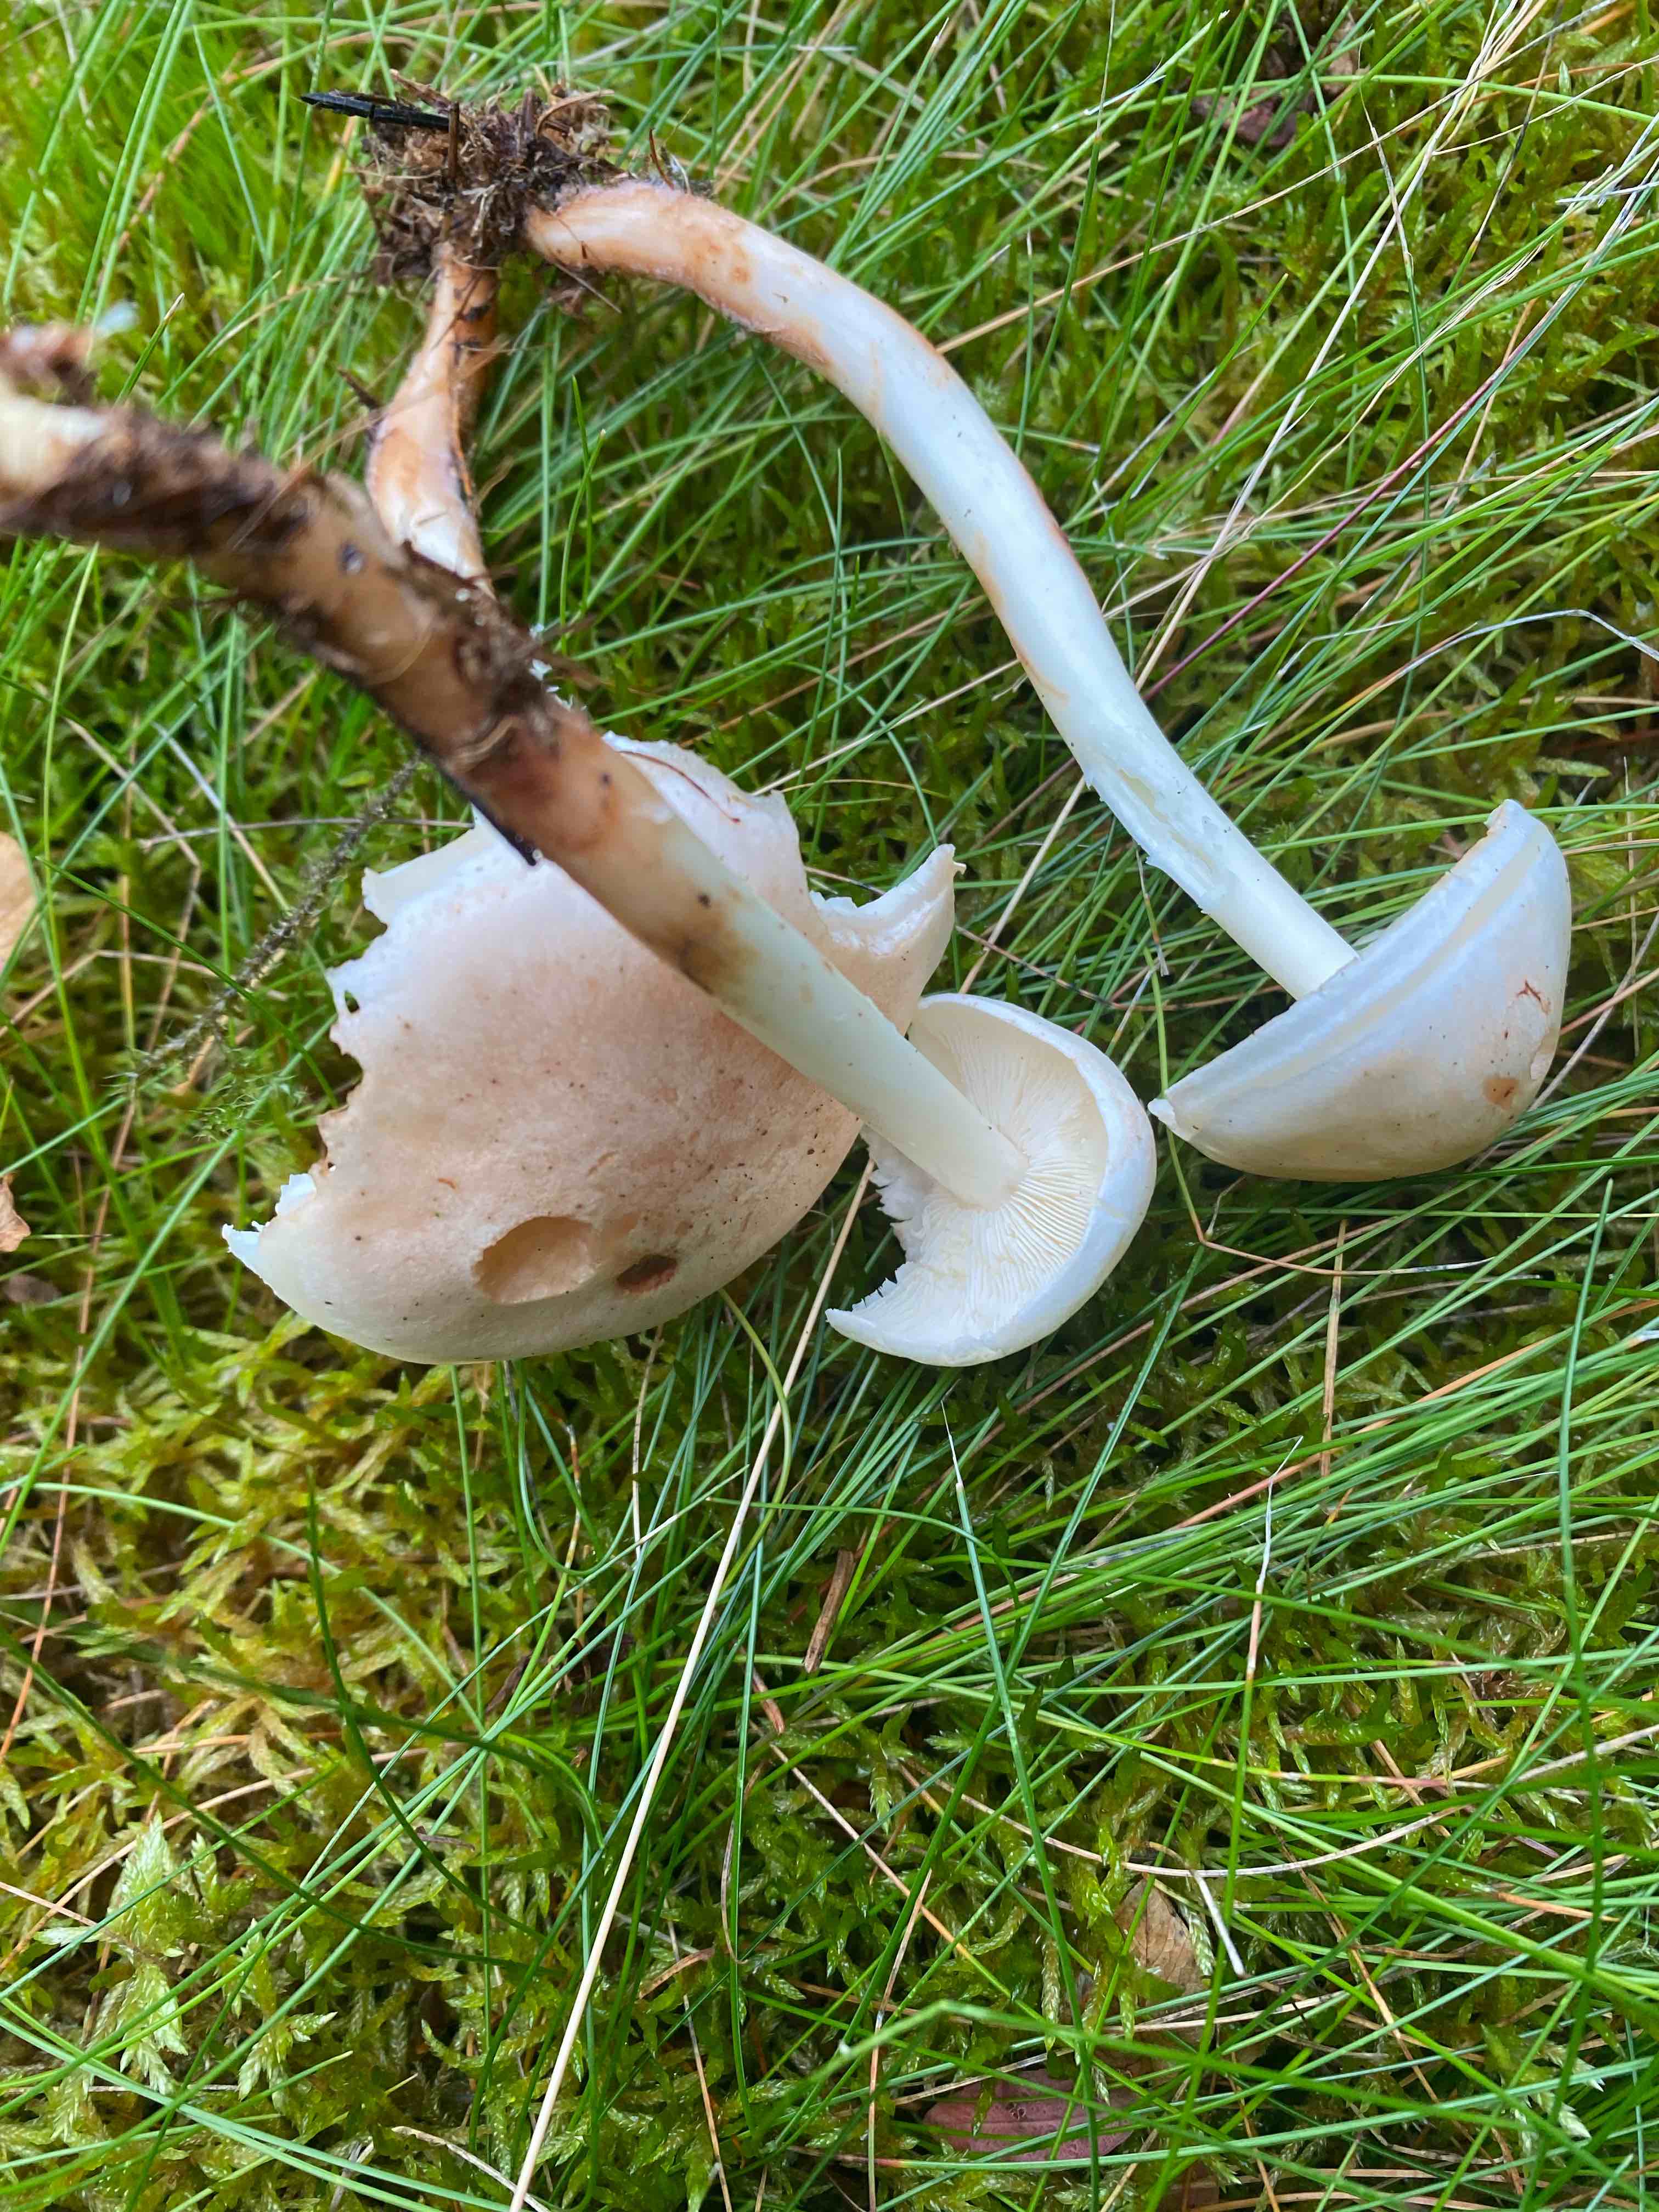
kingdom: Fungi
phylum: Basidiomycota
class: Agaricomycetes
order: Agaricales
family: Omphalotaceae
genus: Rhodocollybia
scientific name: Rhodocollybia maculata
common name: plettet fladhat
